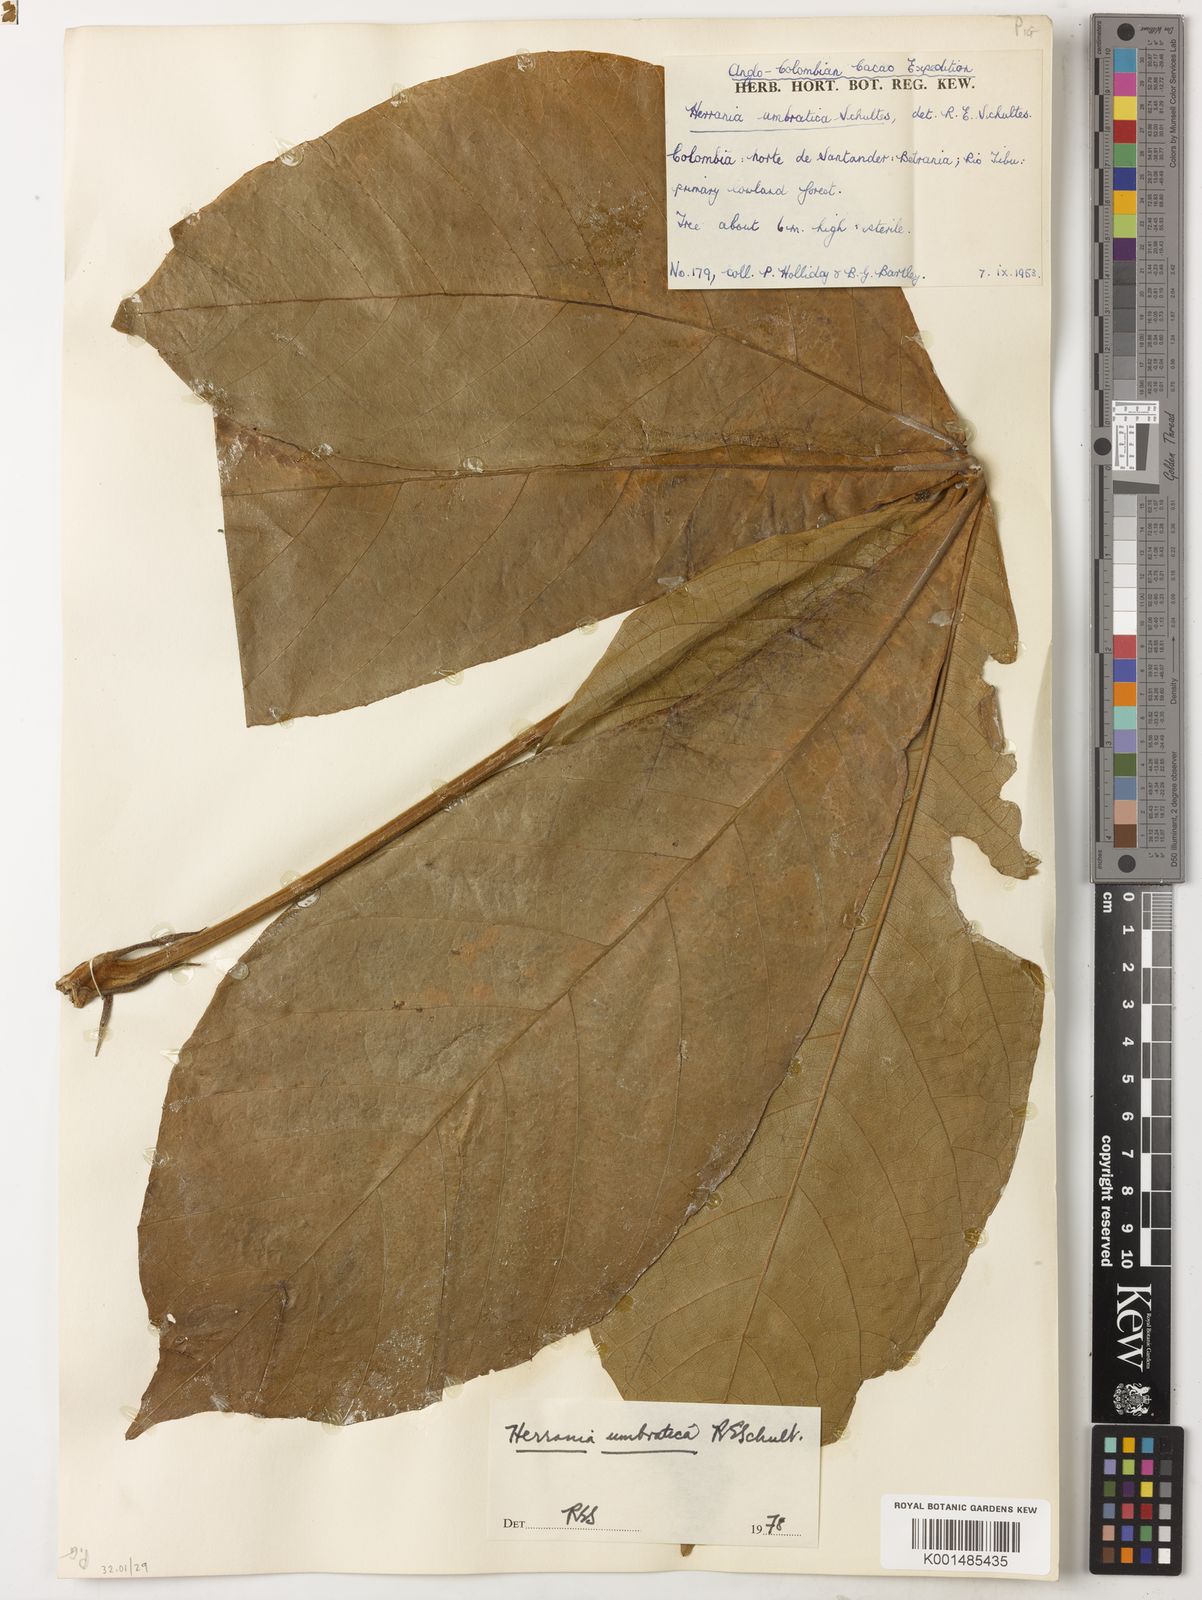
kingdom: Plantae
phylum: Tracheophyta
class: Magnoliopsida
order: Malvales
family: Malvaceae
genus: Herrania
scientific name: Herrania umbratica
